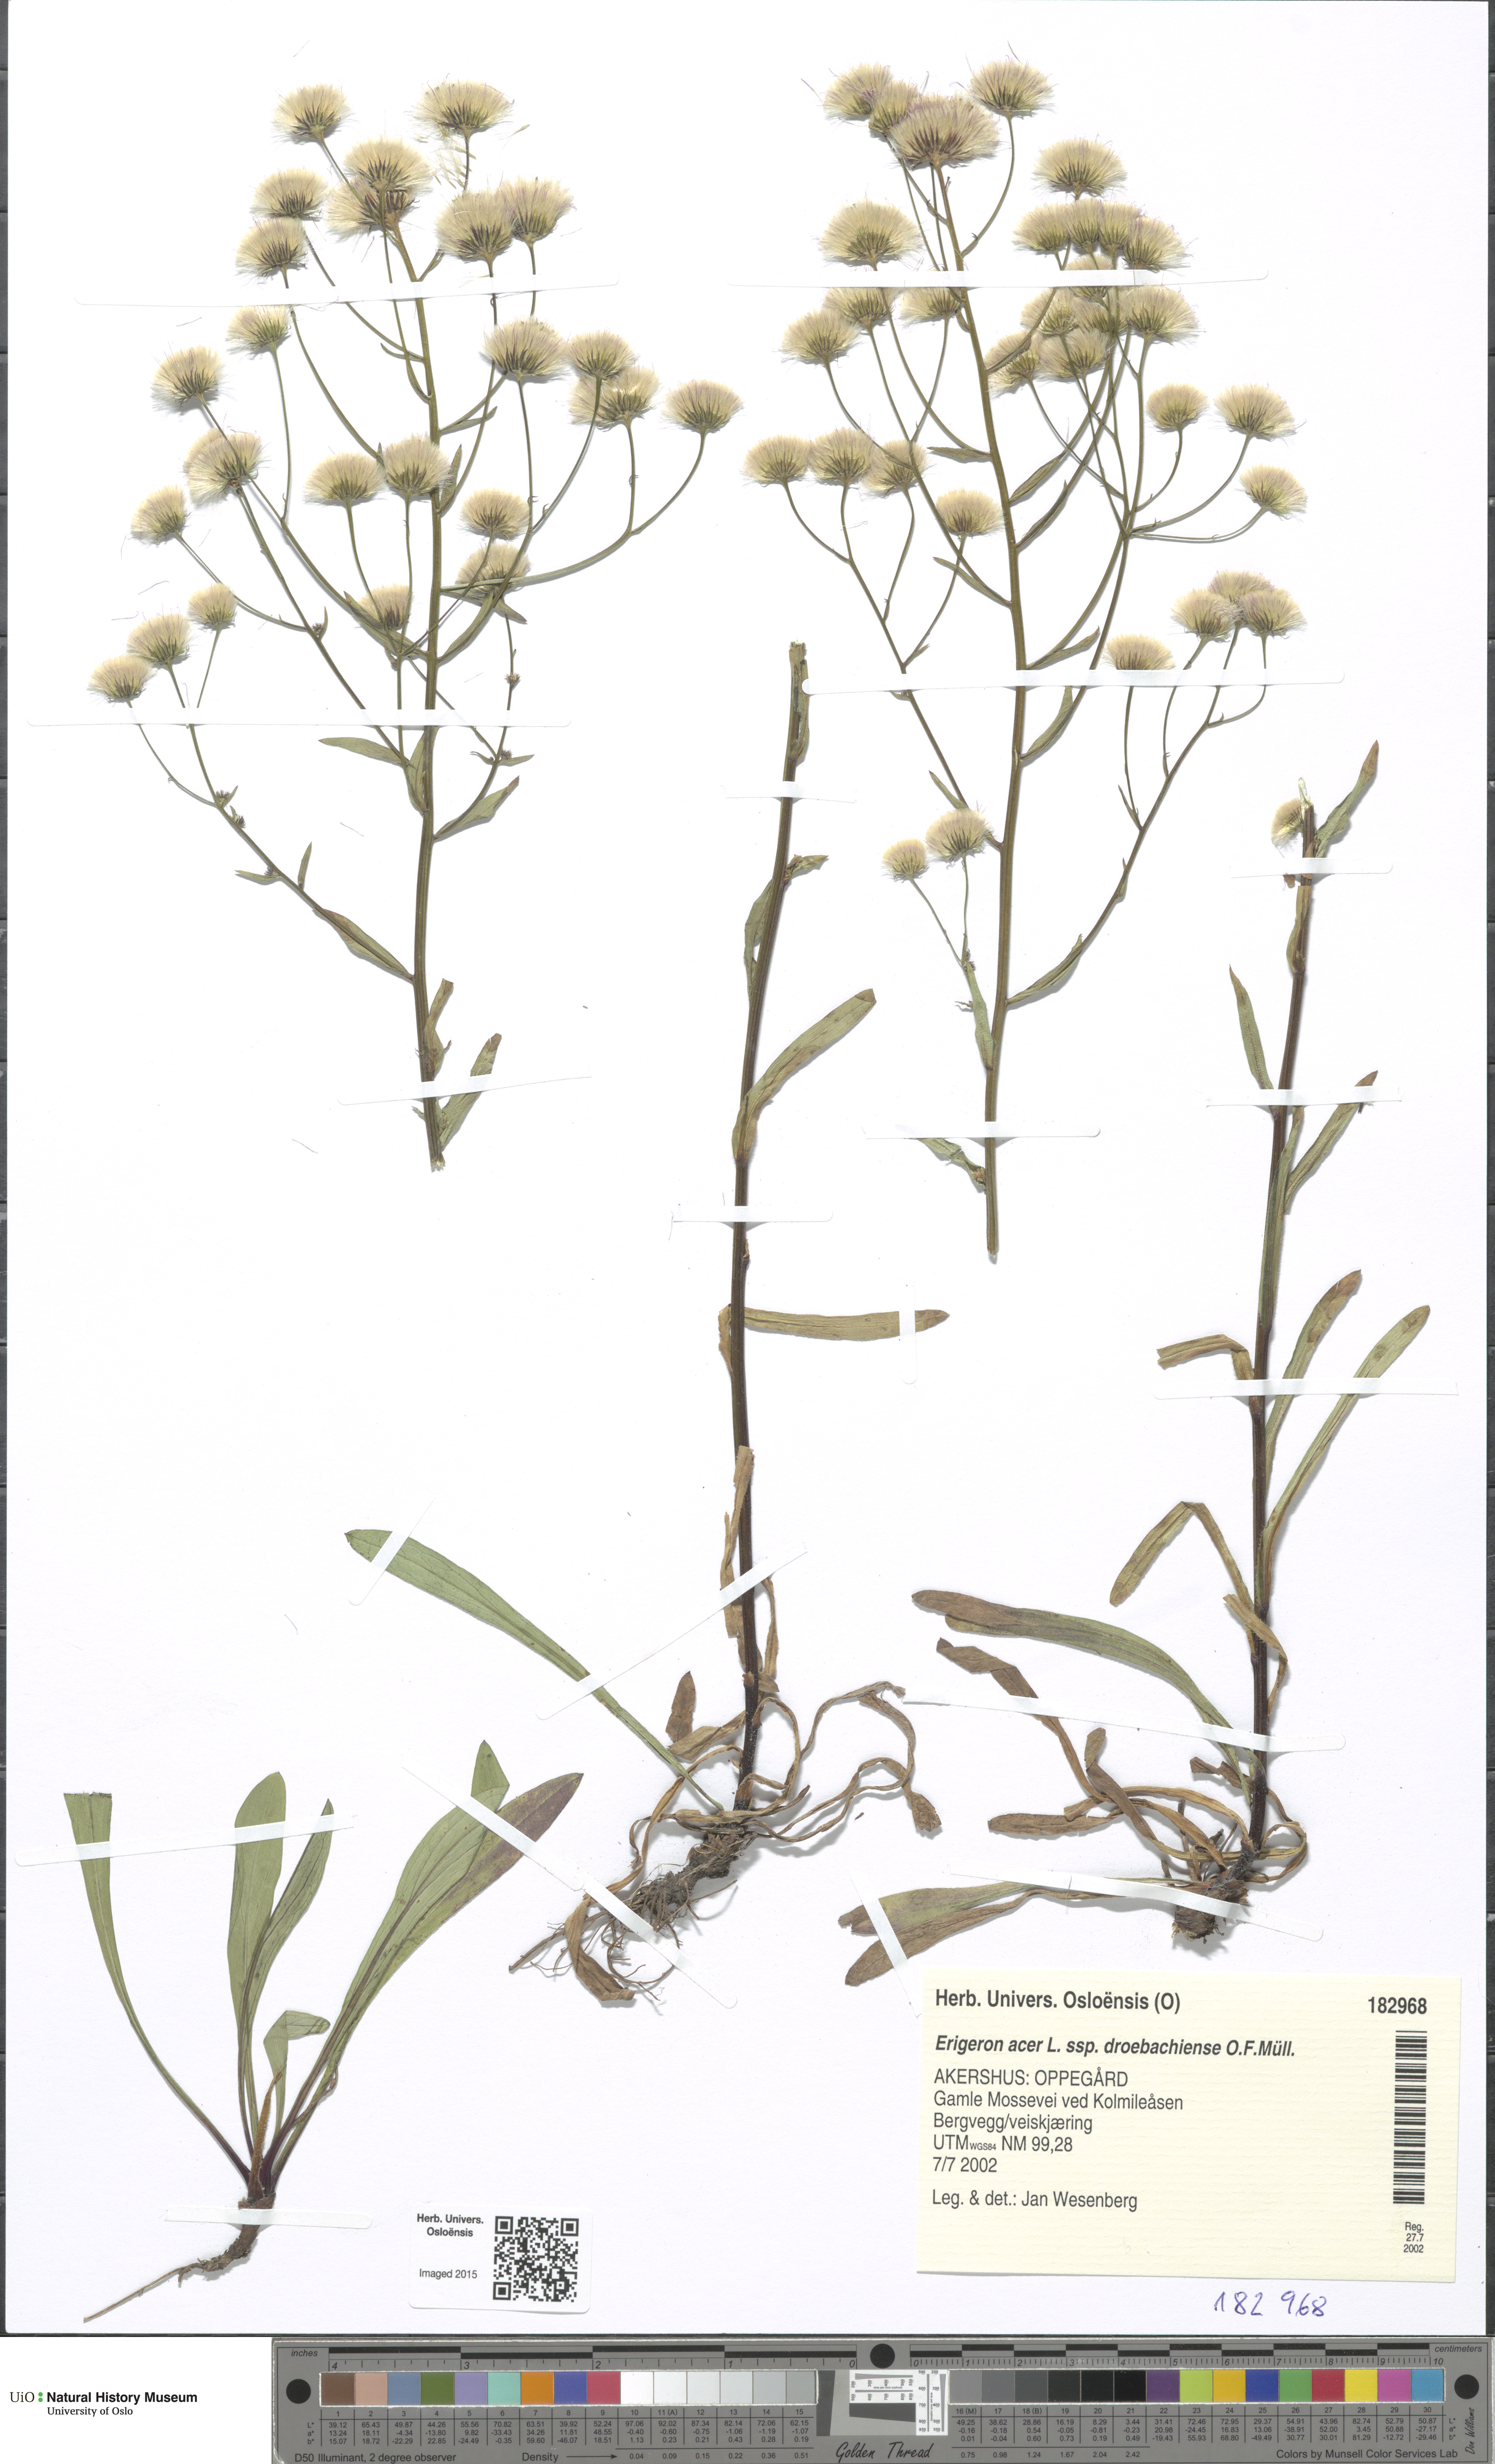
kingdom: Plantae
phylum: Tracheophyta
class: Magnoliopsida
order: Asterales
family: Asteraceae
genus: Erigeron
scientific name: Erigeron droebachiensis
